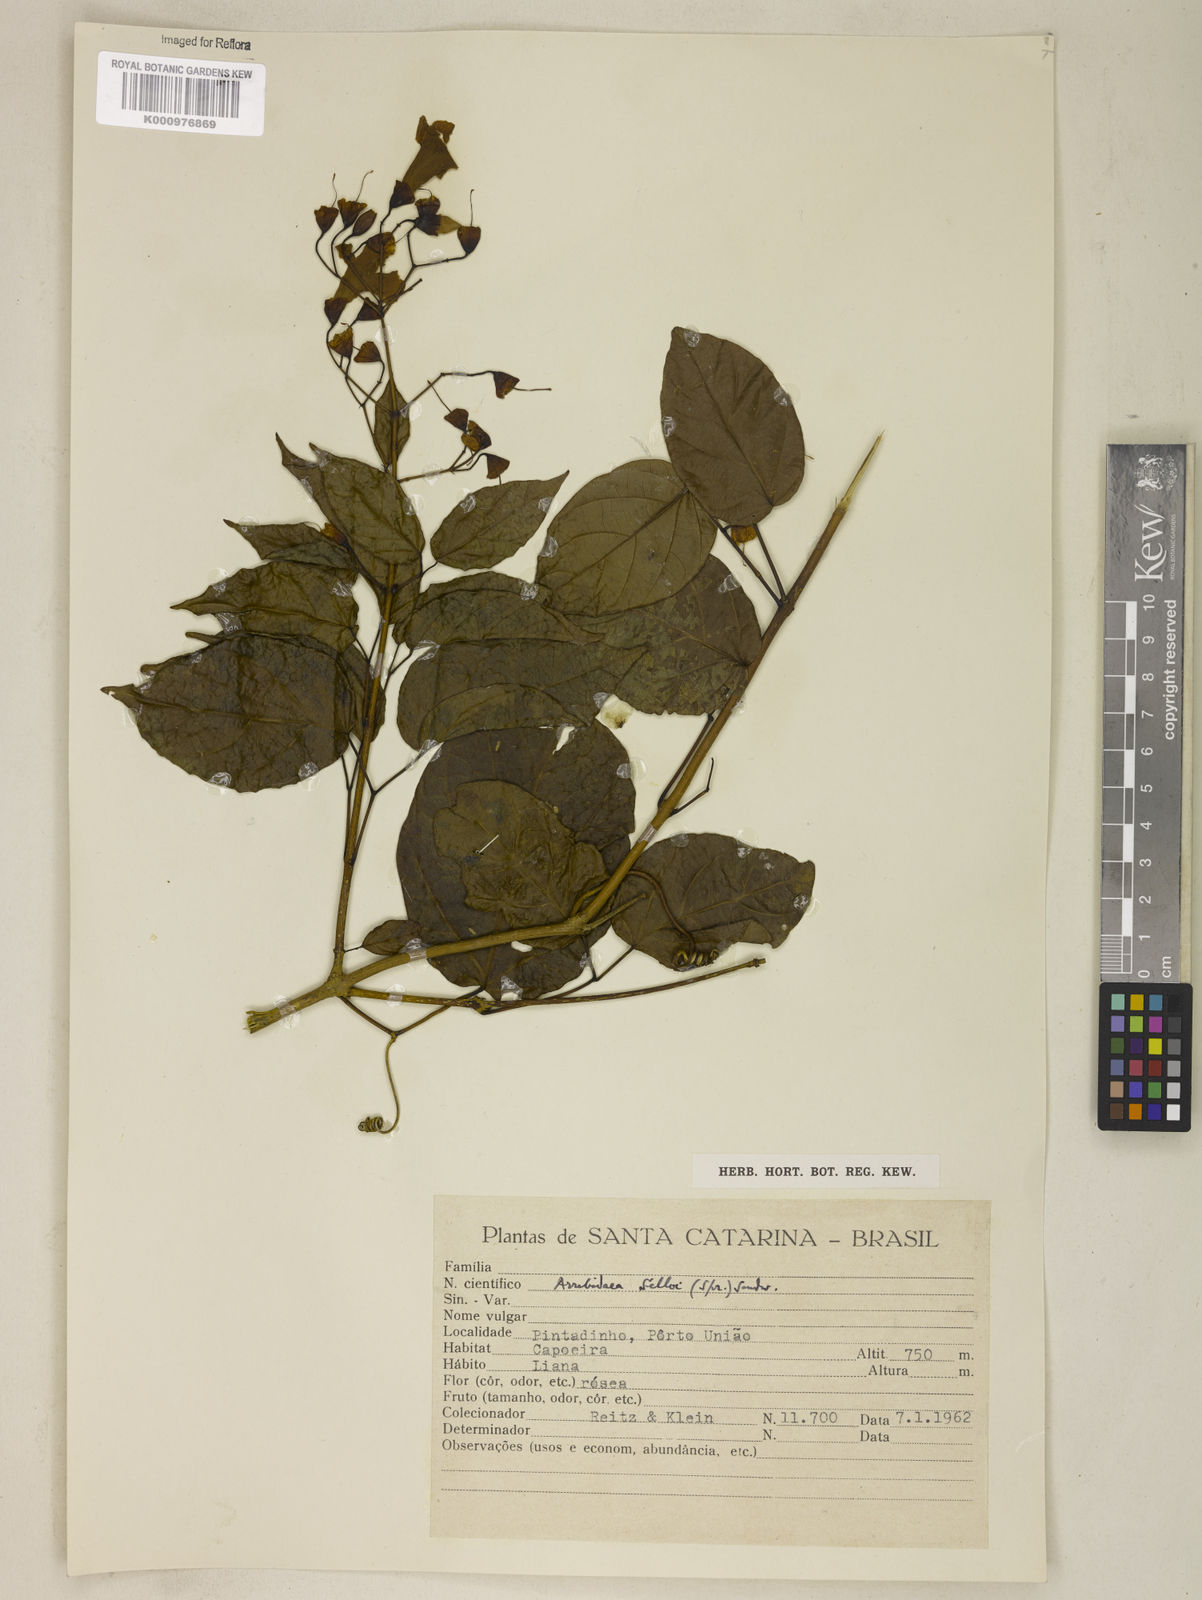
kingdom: Plantae
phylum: Tracheophyta
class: Magnoliopsida
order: Lamiales
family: Bignoniaceae
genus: Tanaecium
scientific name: Tanaecium selloi
